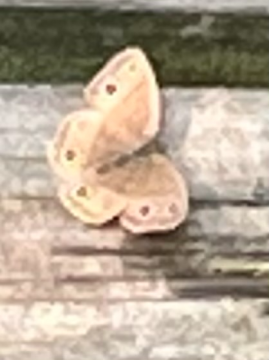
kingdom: Animalia
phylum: Arthropoda
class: Insecta
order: Lepidoptera
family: Nymphalidae
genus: Euptychia
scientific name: Euptychia cymela
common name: Little Wood Satyr
